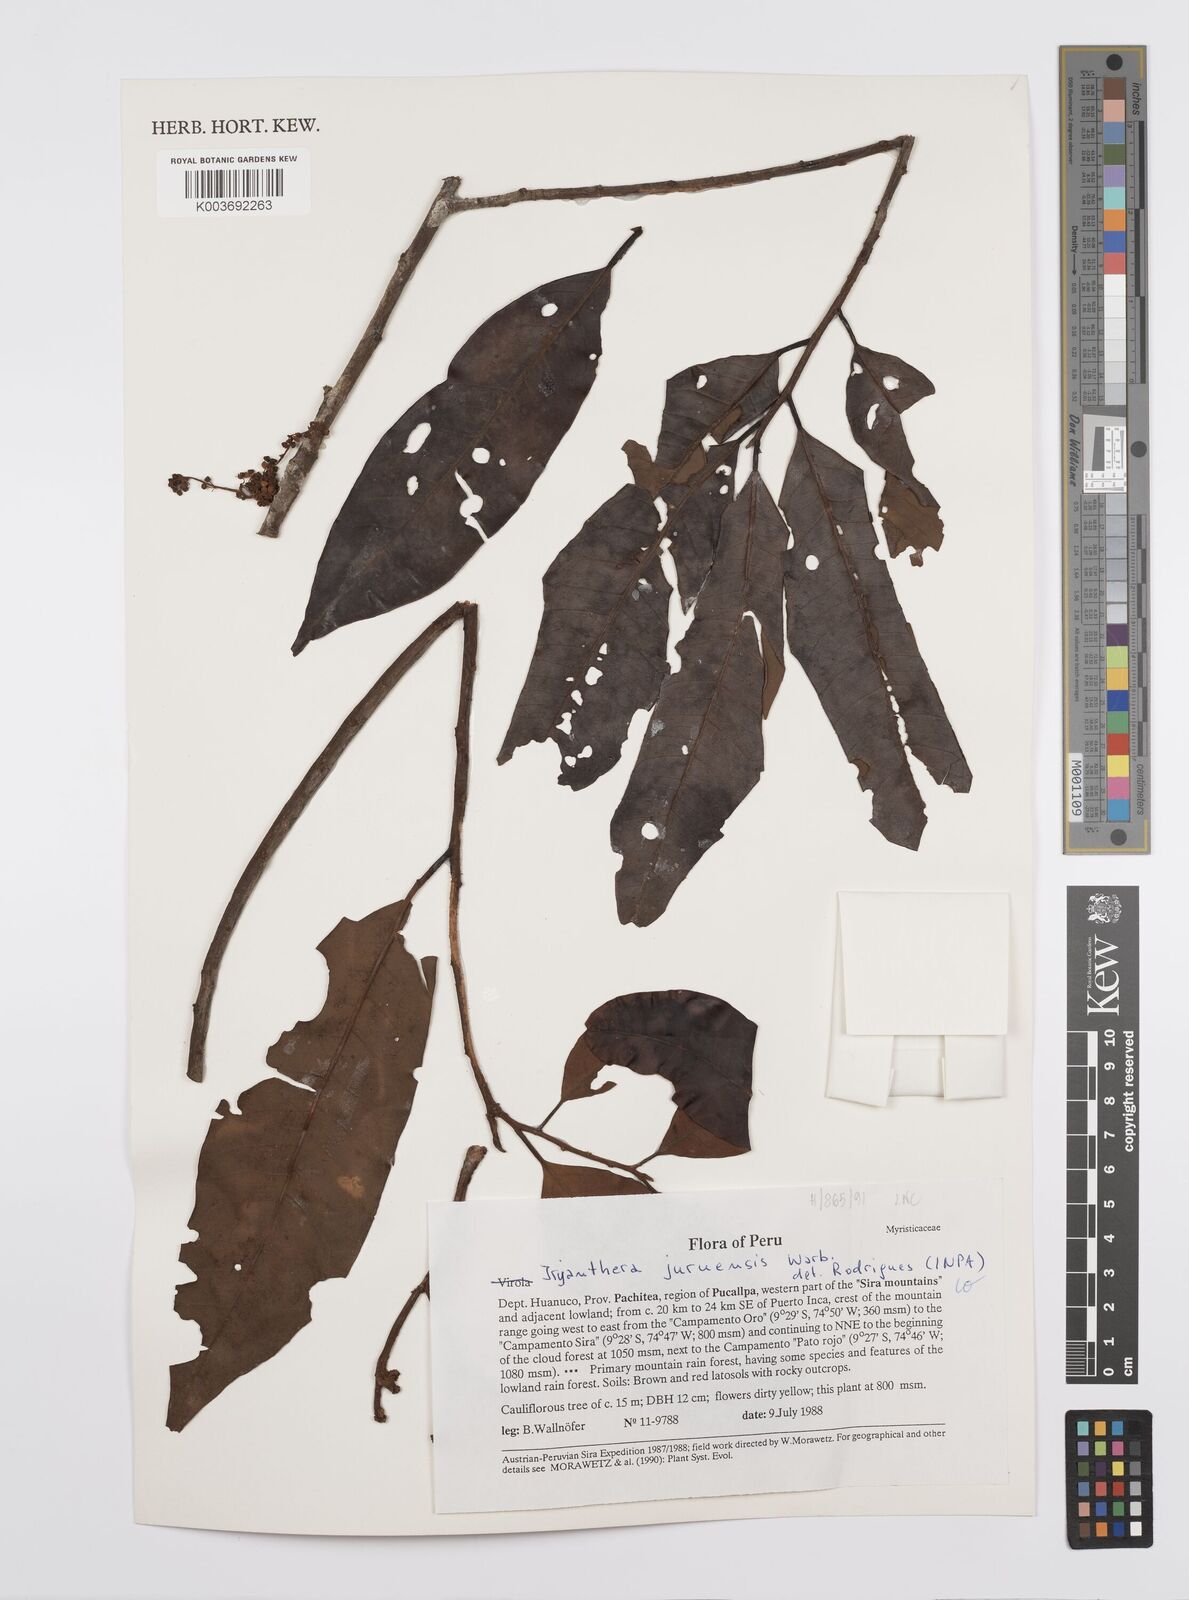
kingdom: Plantae
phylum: Tracheophyta
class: Magnoliopsida
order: Magnoliales
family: Myristicaceae
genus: Iryanthera
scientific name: Iryanthera juruensis
